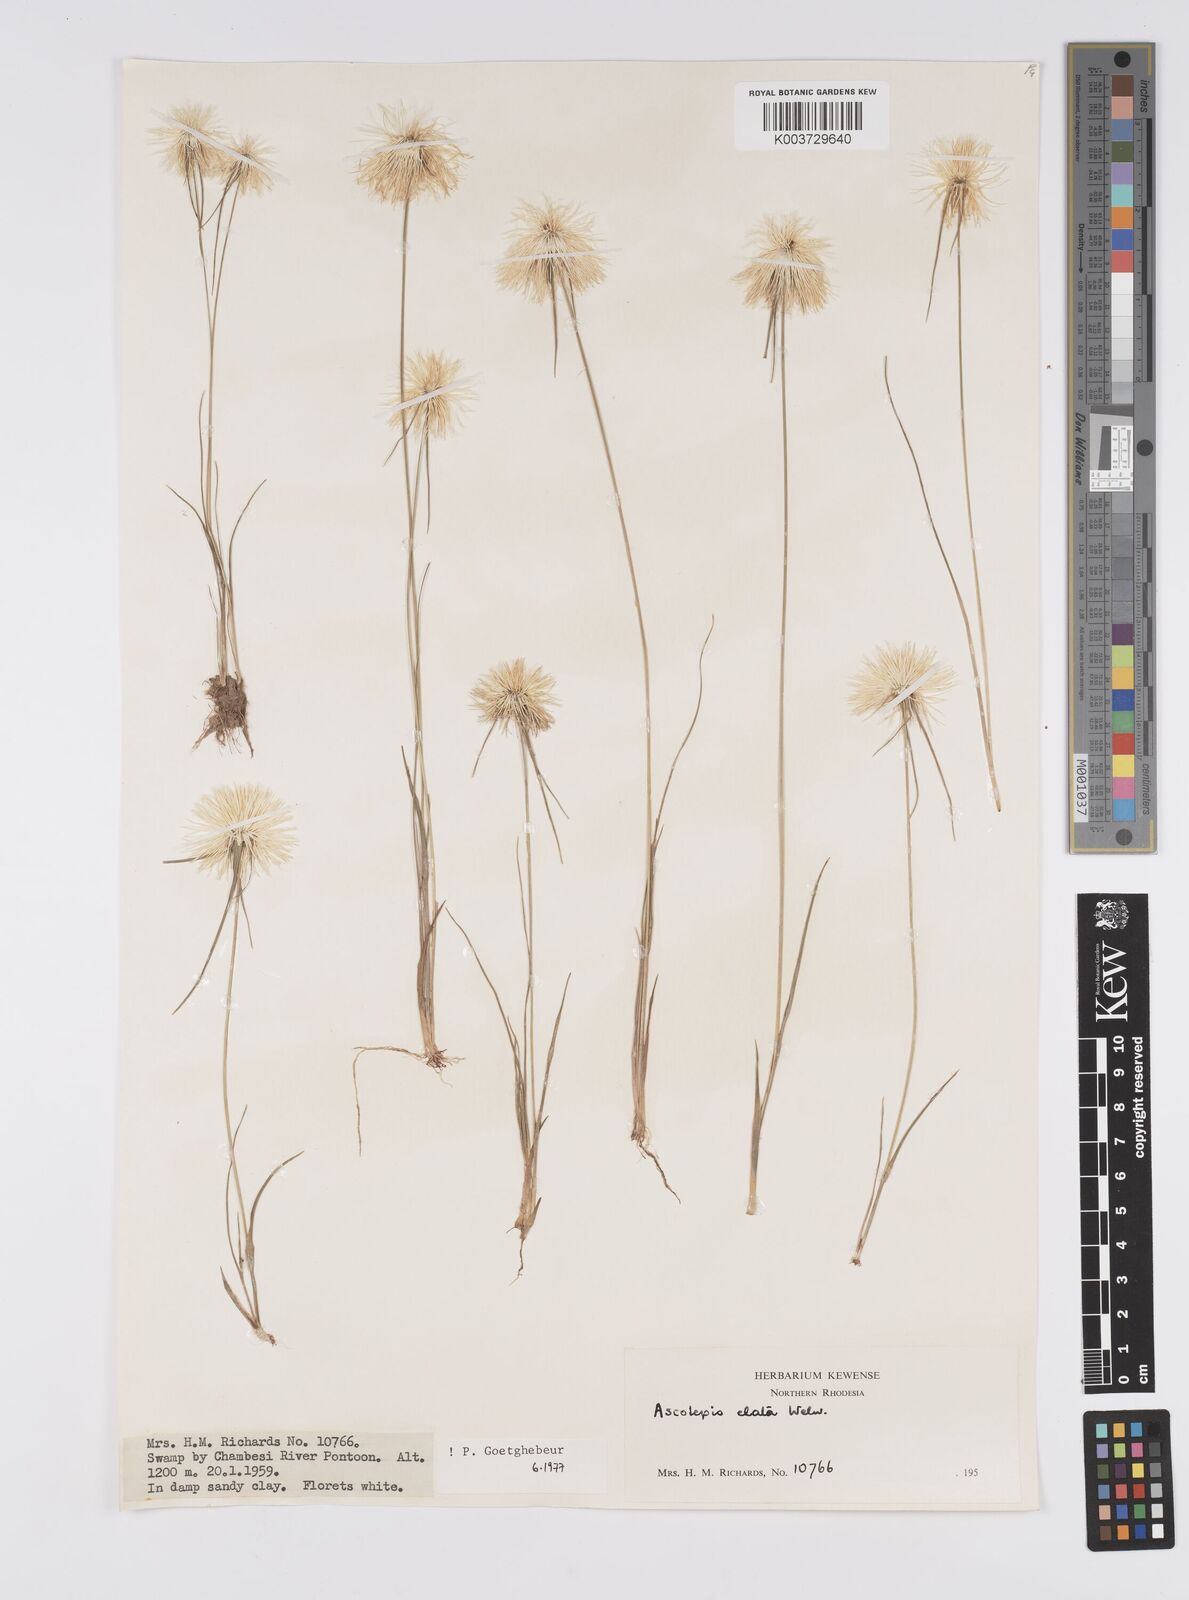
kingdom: Plantae
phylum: Tracheophyta
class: Liliopsida
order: Poales
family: Cyperaceae
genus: Cyperus
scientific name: Cyperus
